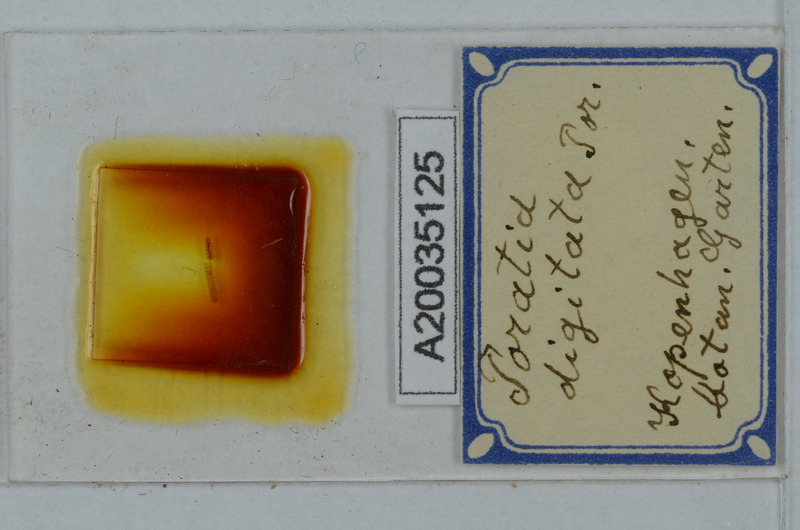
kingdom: Animalia
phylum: Arthropoda
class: Diplopoda
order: Polydesmida
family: Pyrgodesmidae
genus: Poratia
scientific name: Poratia digitata
